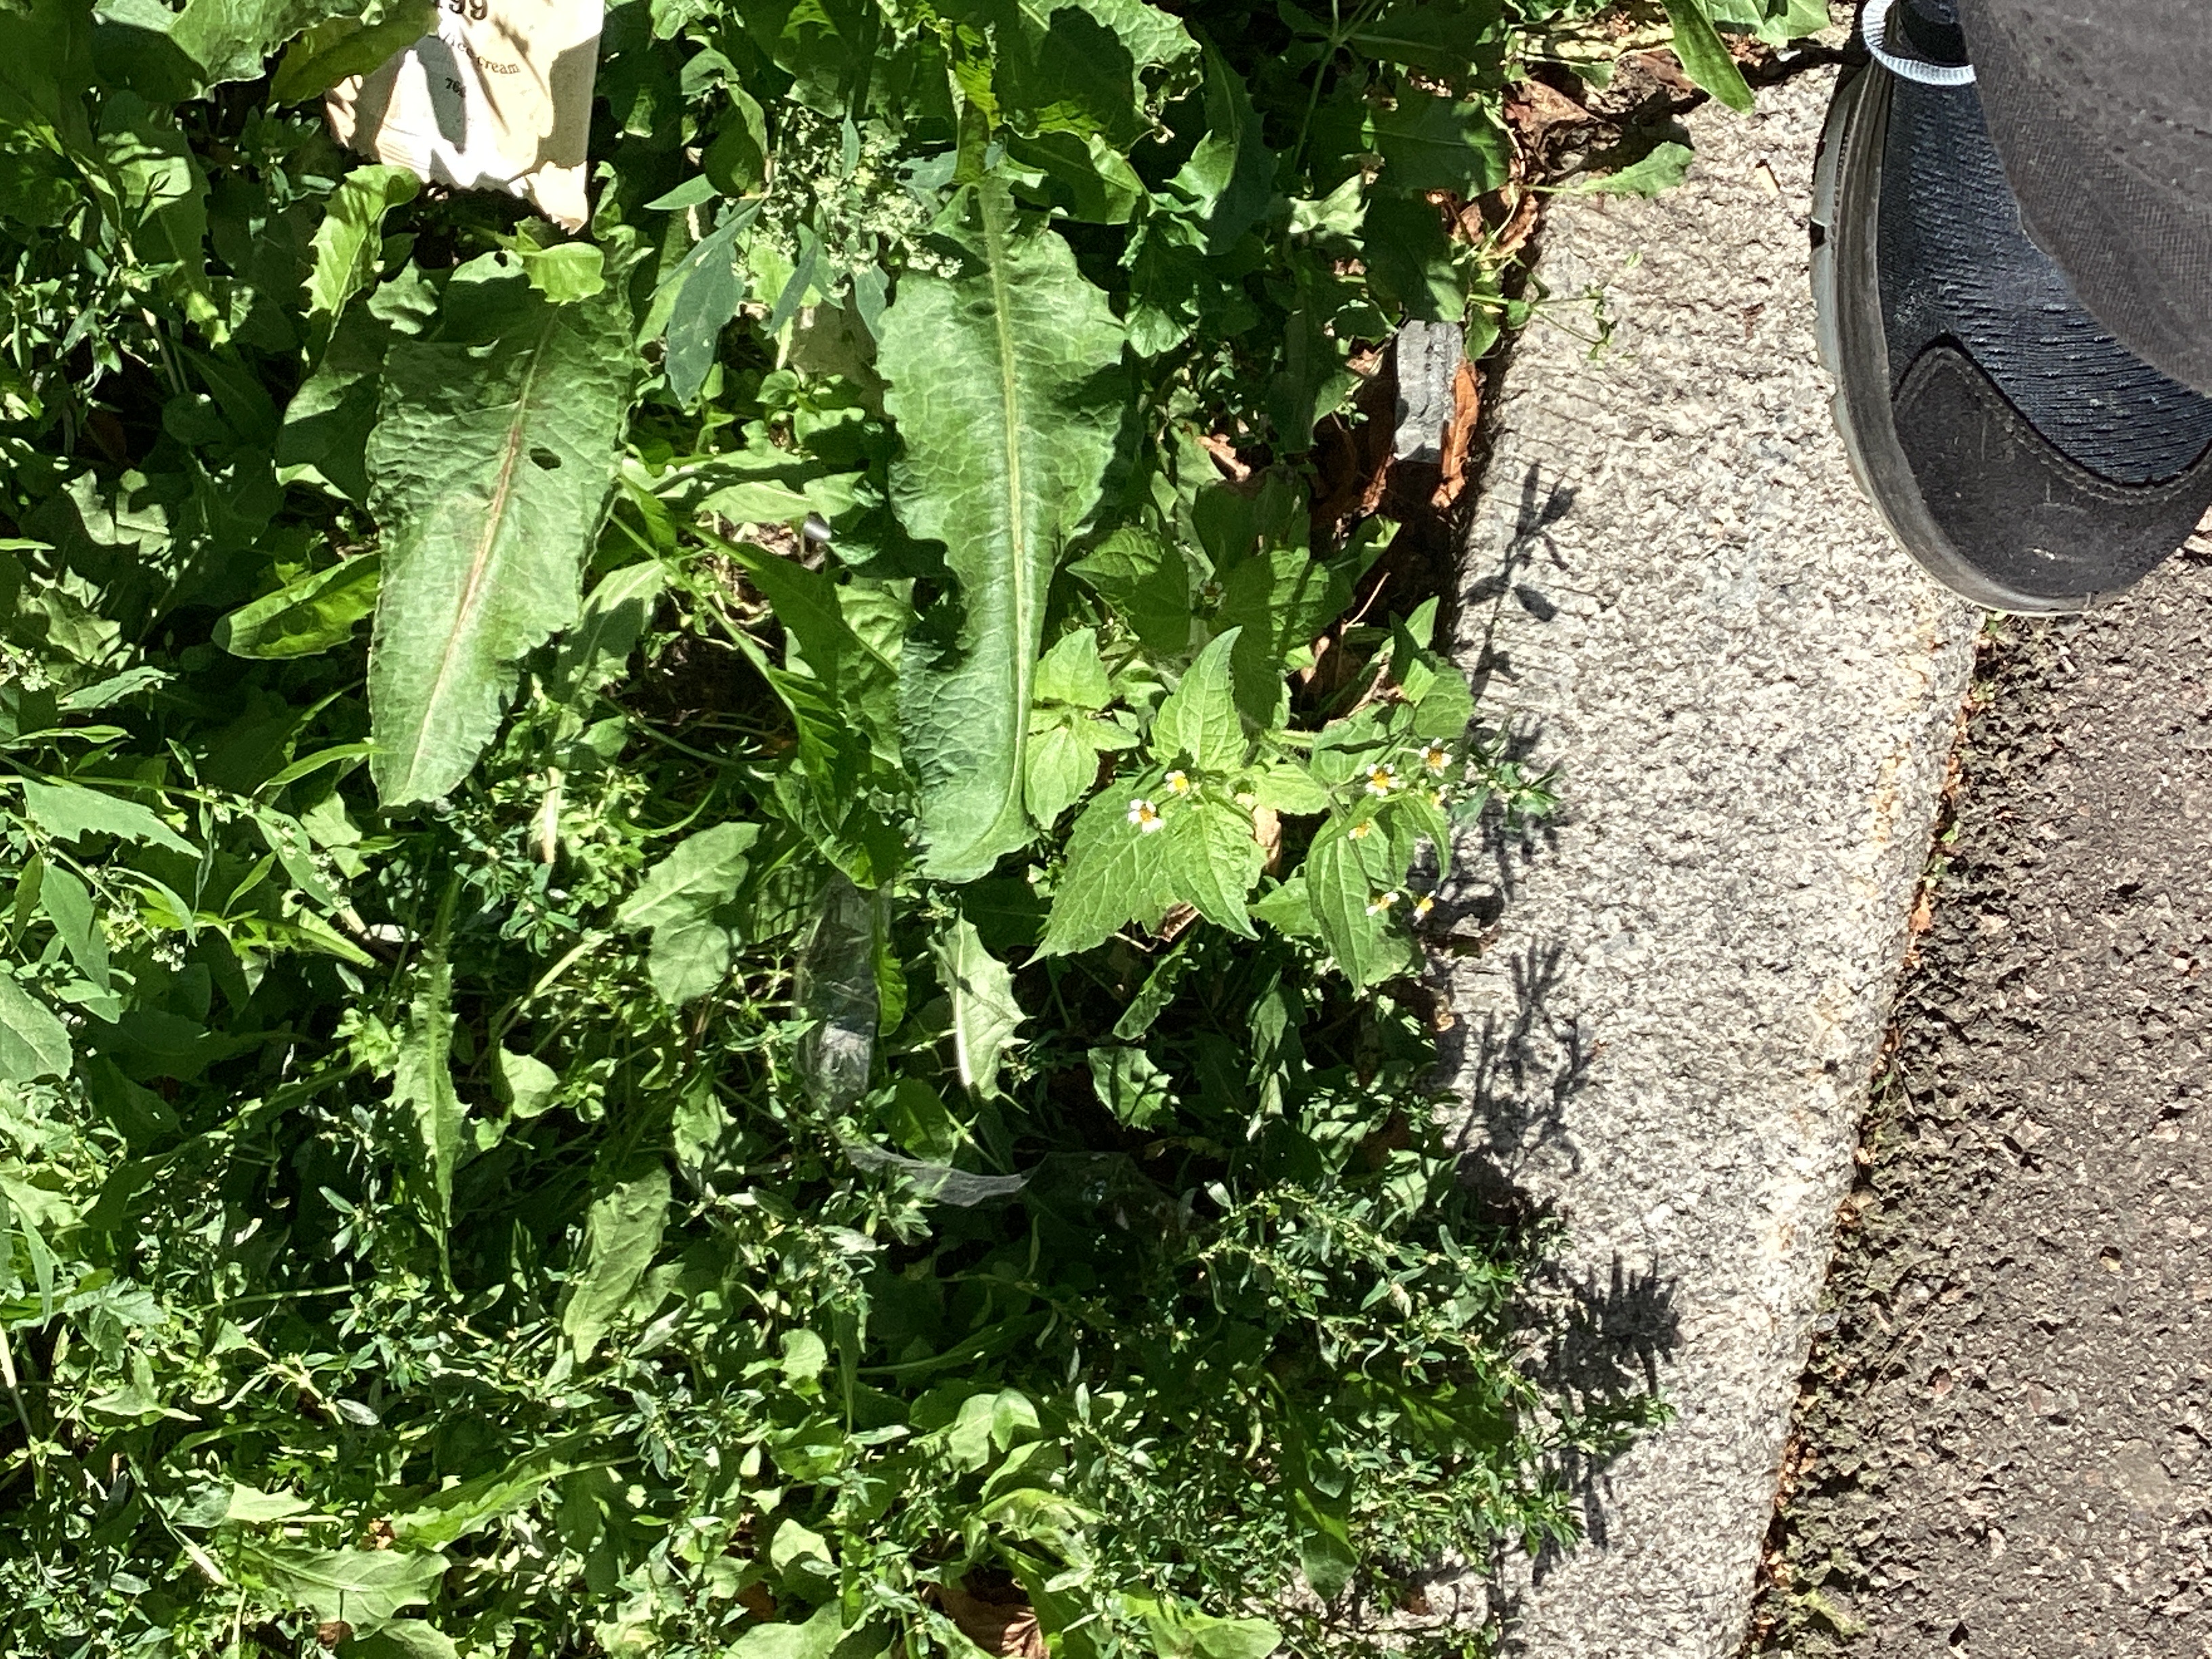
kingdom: Plantae
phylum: Tracheophyta
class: Magnoliopsida
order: Asterales
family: Asteraceae
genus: Galinsoga
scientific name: Galinsoga quadriradiata
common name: nesleskjellfrø
